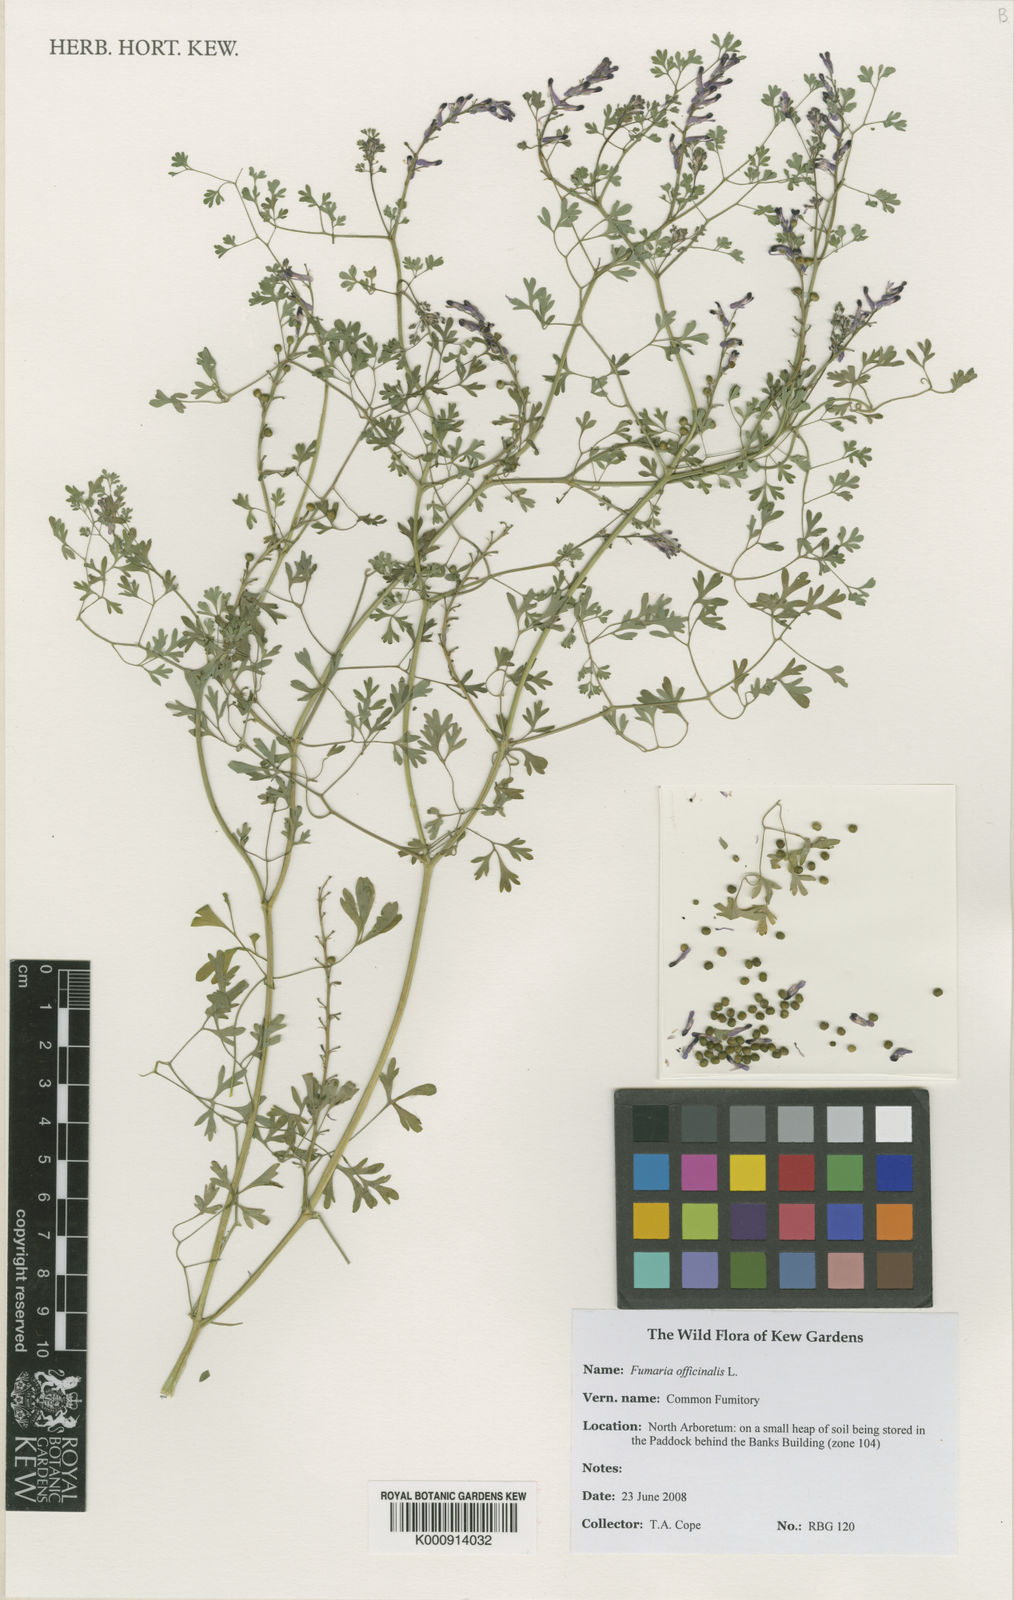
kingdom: Plantae
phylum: Tracheophyta
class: Magnoliopsida
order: Ranunculales
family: Papaveraceae
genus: Fumaria
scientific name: Fumaria officinalis
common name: Common fumitory
